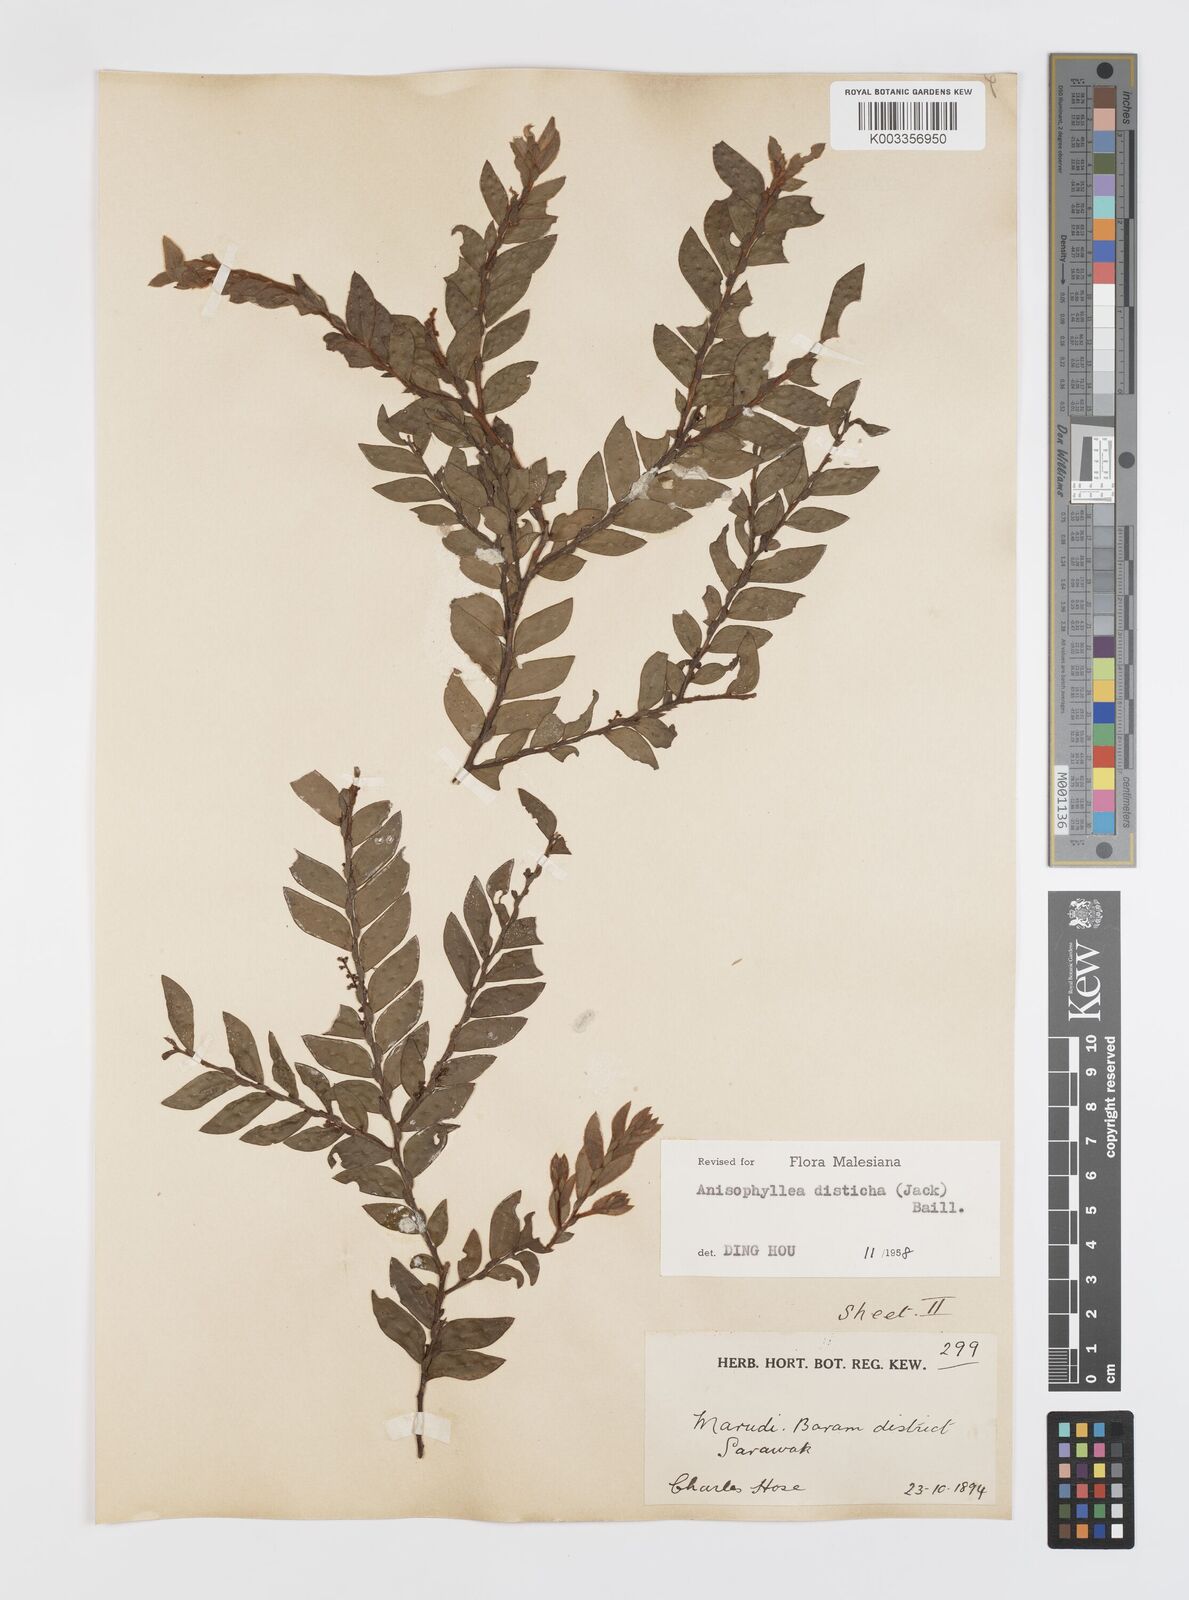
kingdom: Plantae
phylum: Tracheophyta
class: Magnoliopsida
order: Cucurbitales
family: Anisophylleaceae
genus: Anisophyllea
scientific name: Anisophyllea disticha
